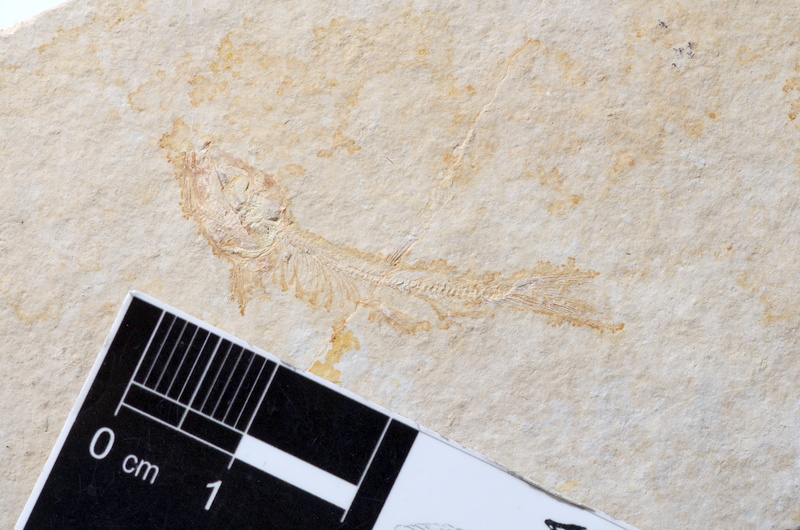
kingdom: Animalia
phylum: Chordata
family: Ascalaboidae
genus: Tharsis
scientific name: Tharsis dubius
